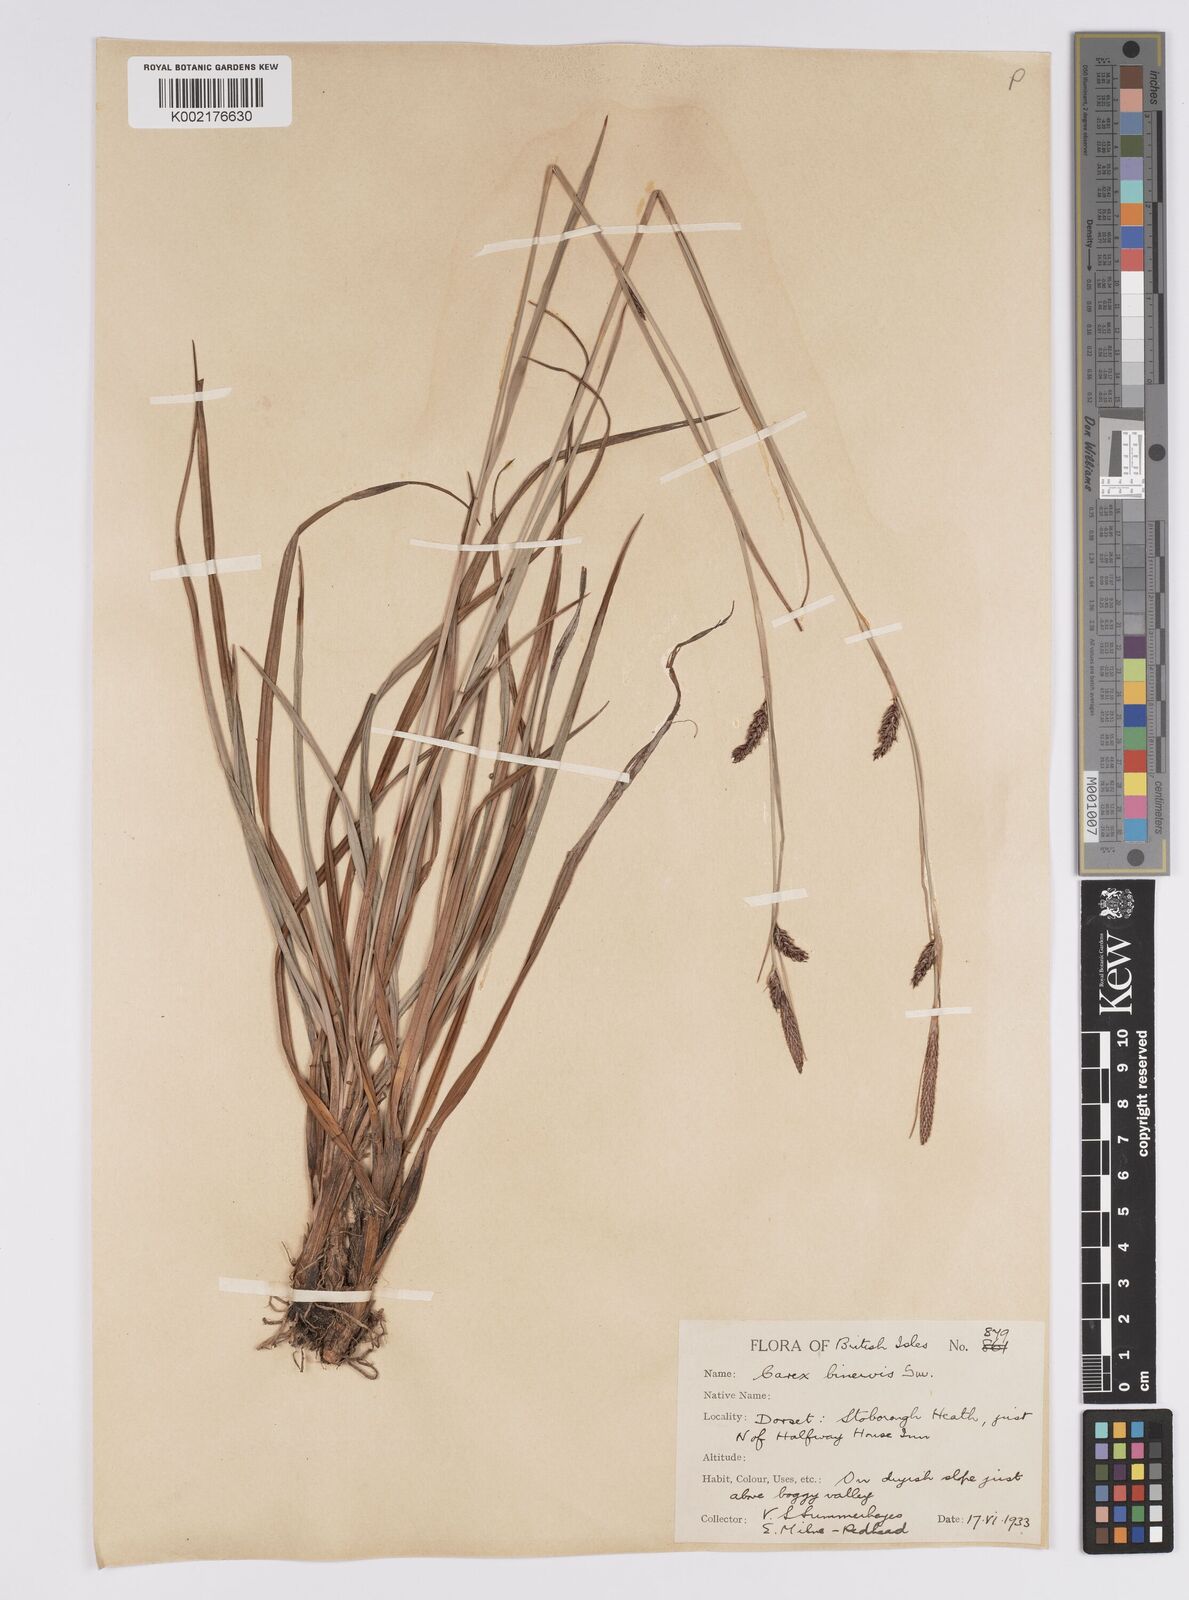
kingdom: Plantae
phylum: Tracheophyta
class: Liliopsida
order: Poales
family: Cyperaceae
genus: Carex
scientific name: Carex binervis
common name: Green-ribbed sedge
